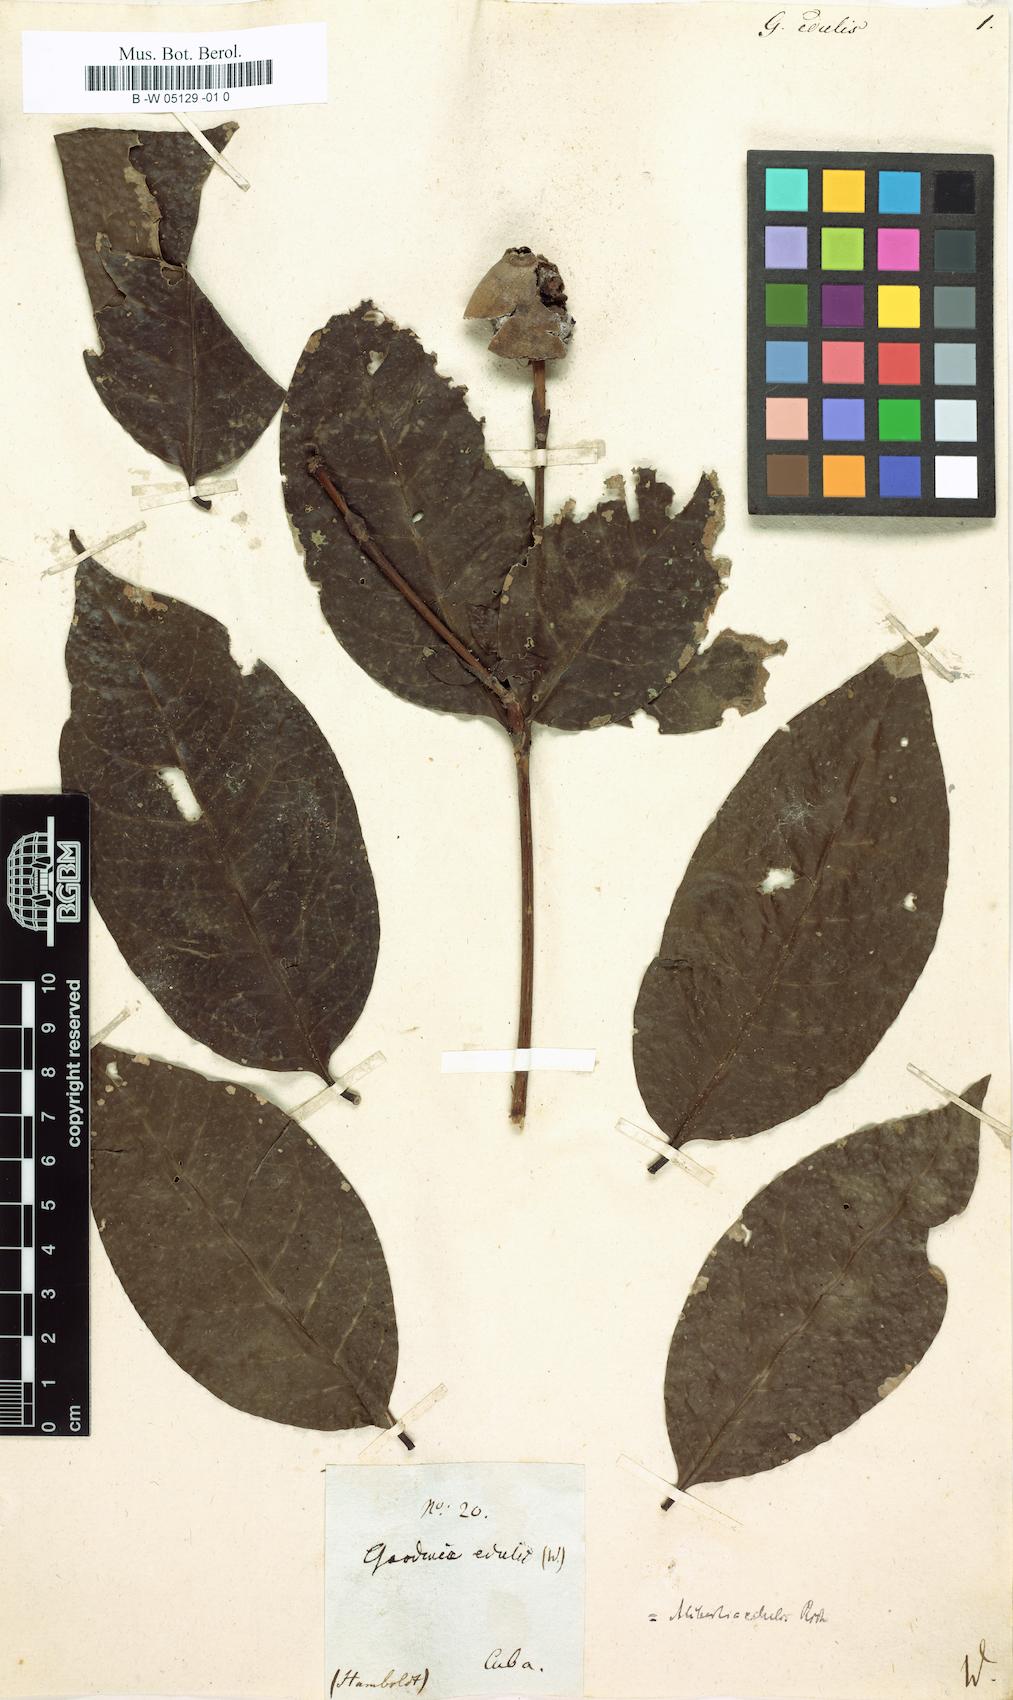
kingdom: Plantae
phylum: Tracheophyta
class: Magnoliopsida
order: Gentianales
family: Rubiaceae
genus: Alibertia
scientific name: Alibertia edulis
